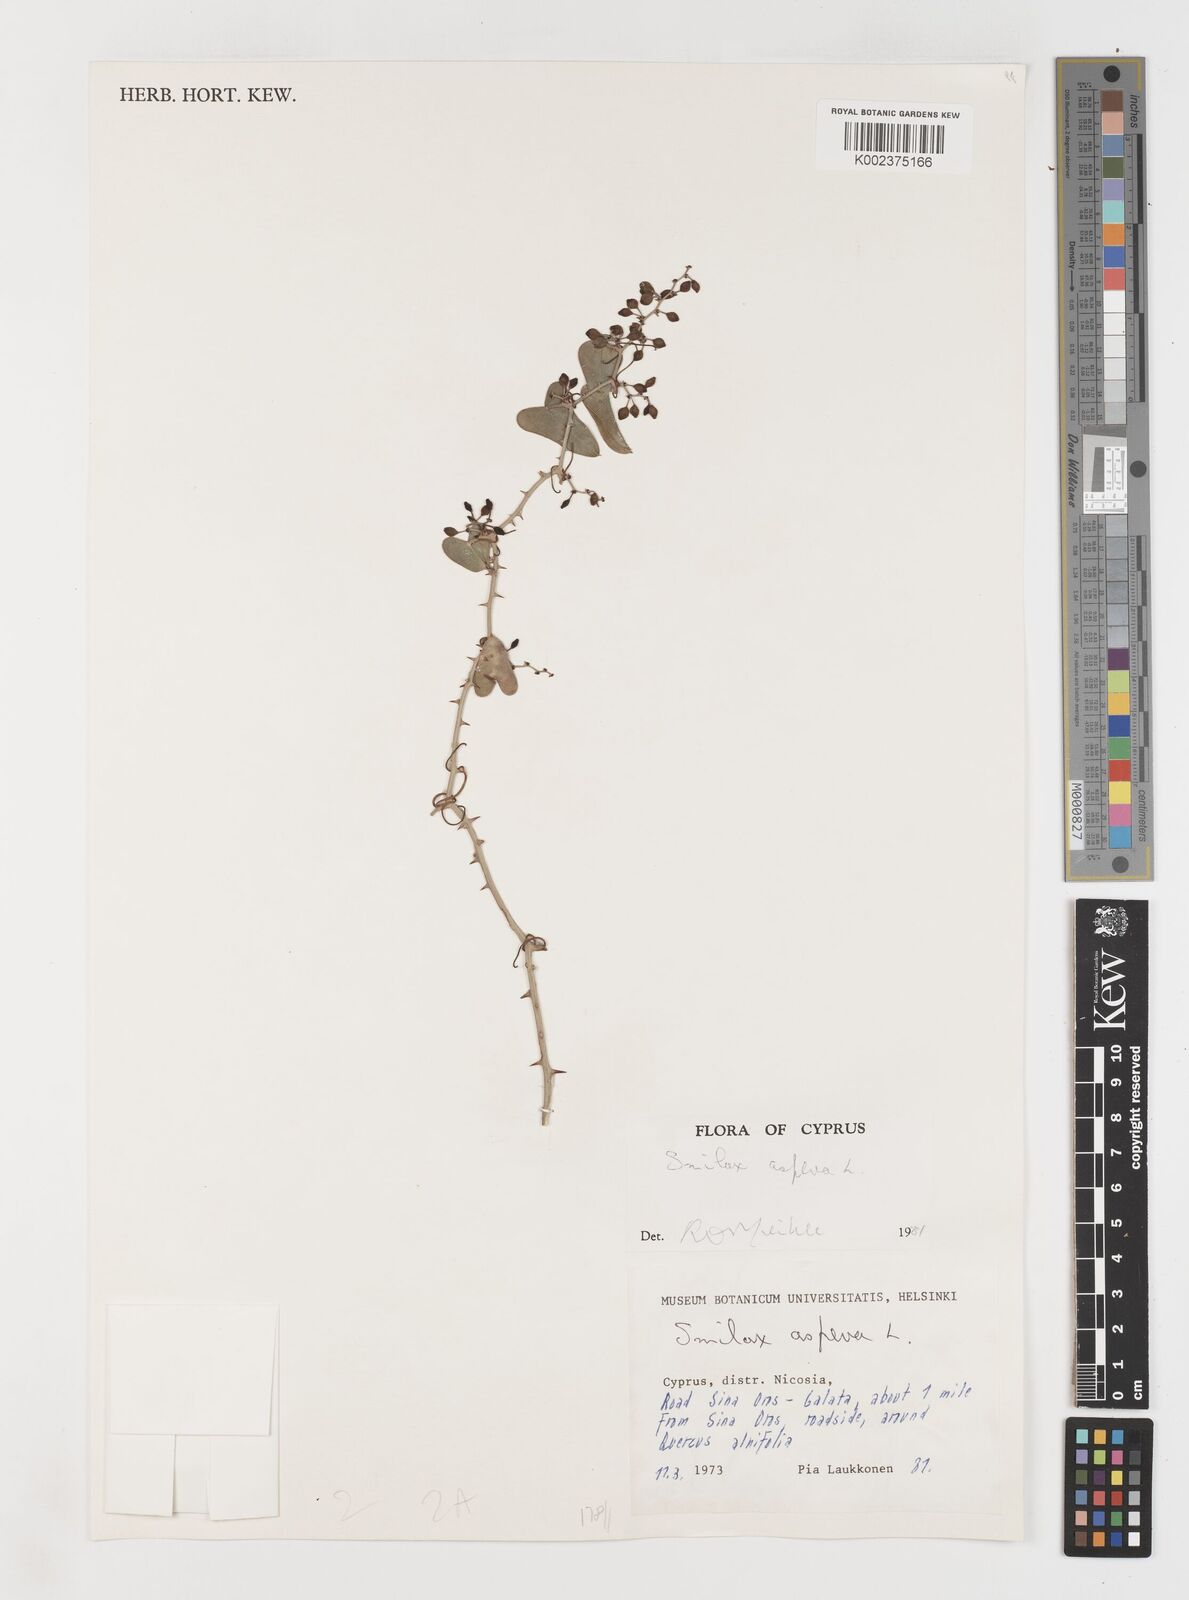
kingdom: Plantae
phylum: Tracheophyta
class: Liliopsida
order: Liliales
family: Smilacaceae
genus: Smilax
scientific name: Smilax aspera
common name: Common smilax
